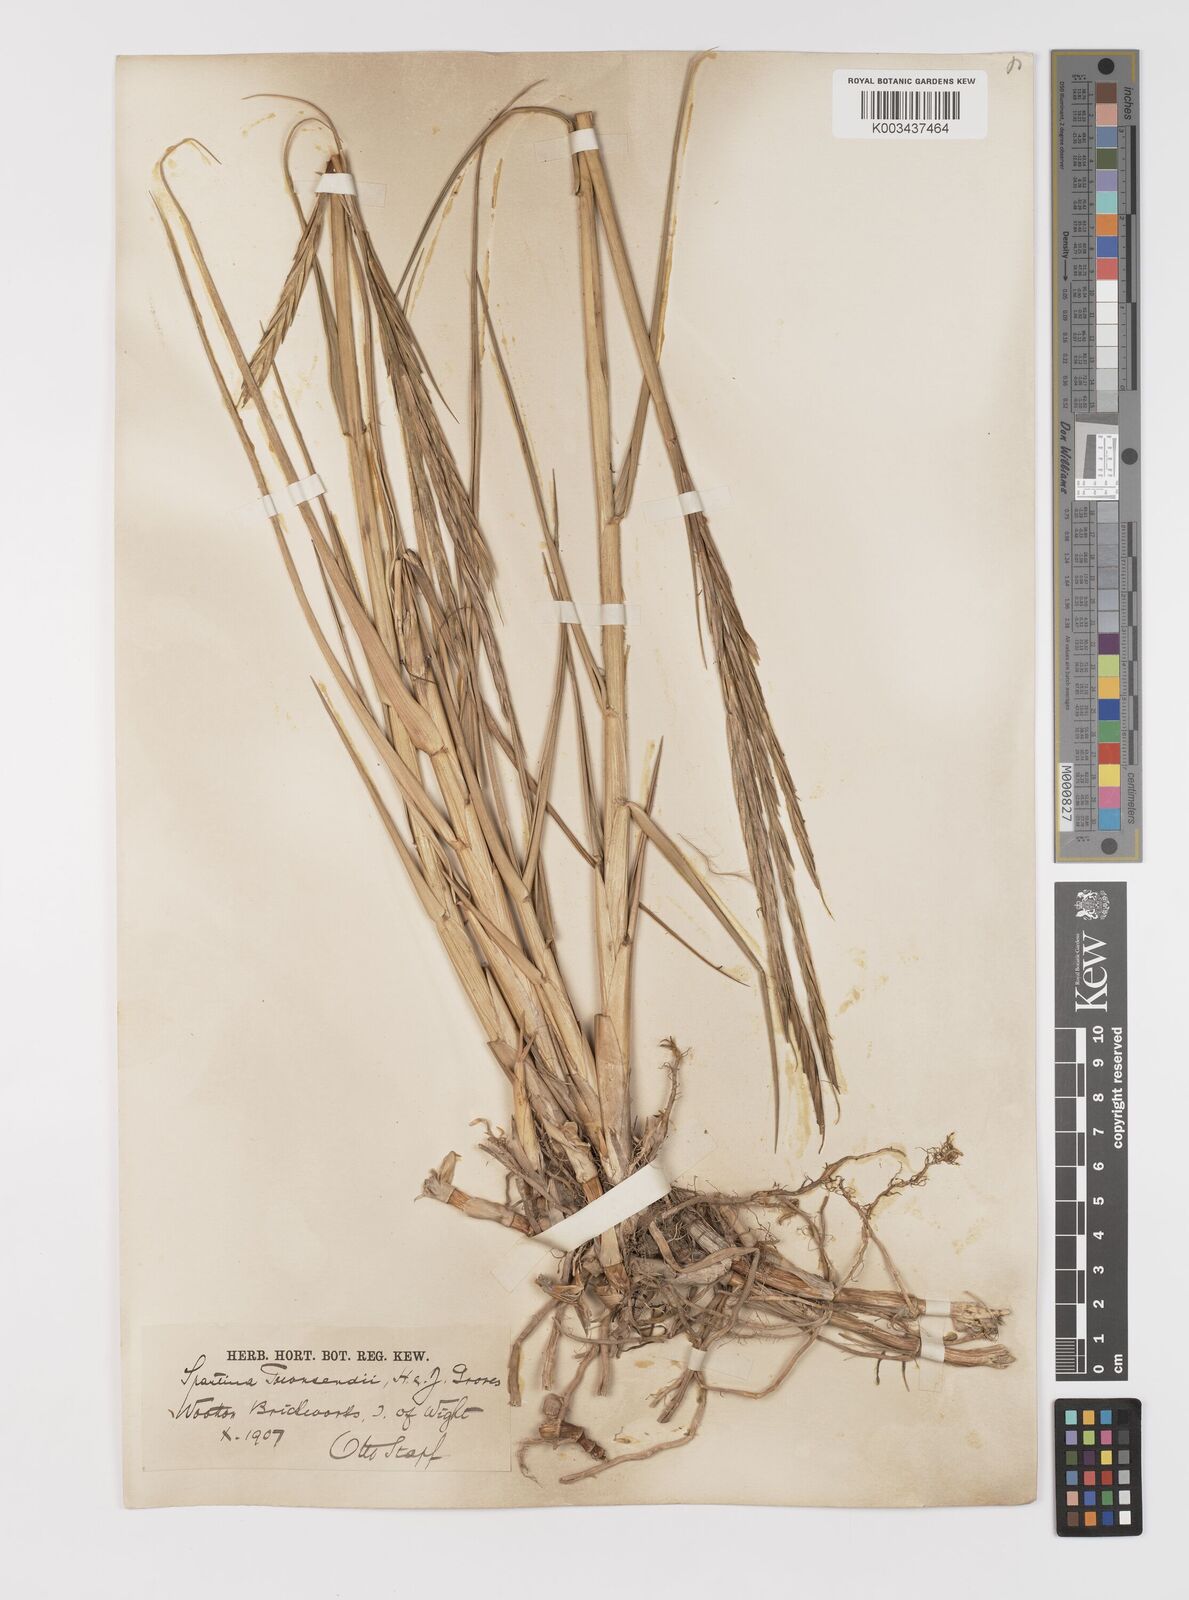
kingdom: Plantae
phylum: Tracheophyta
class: Liliopsida
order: Poales
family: Poaceae
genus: Sporobolus
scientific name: Sporobolus anglicus
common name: English cordgrass
